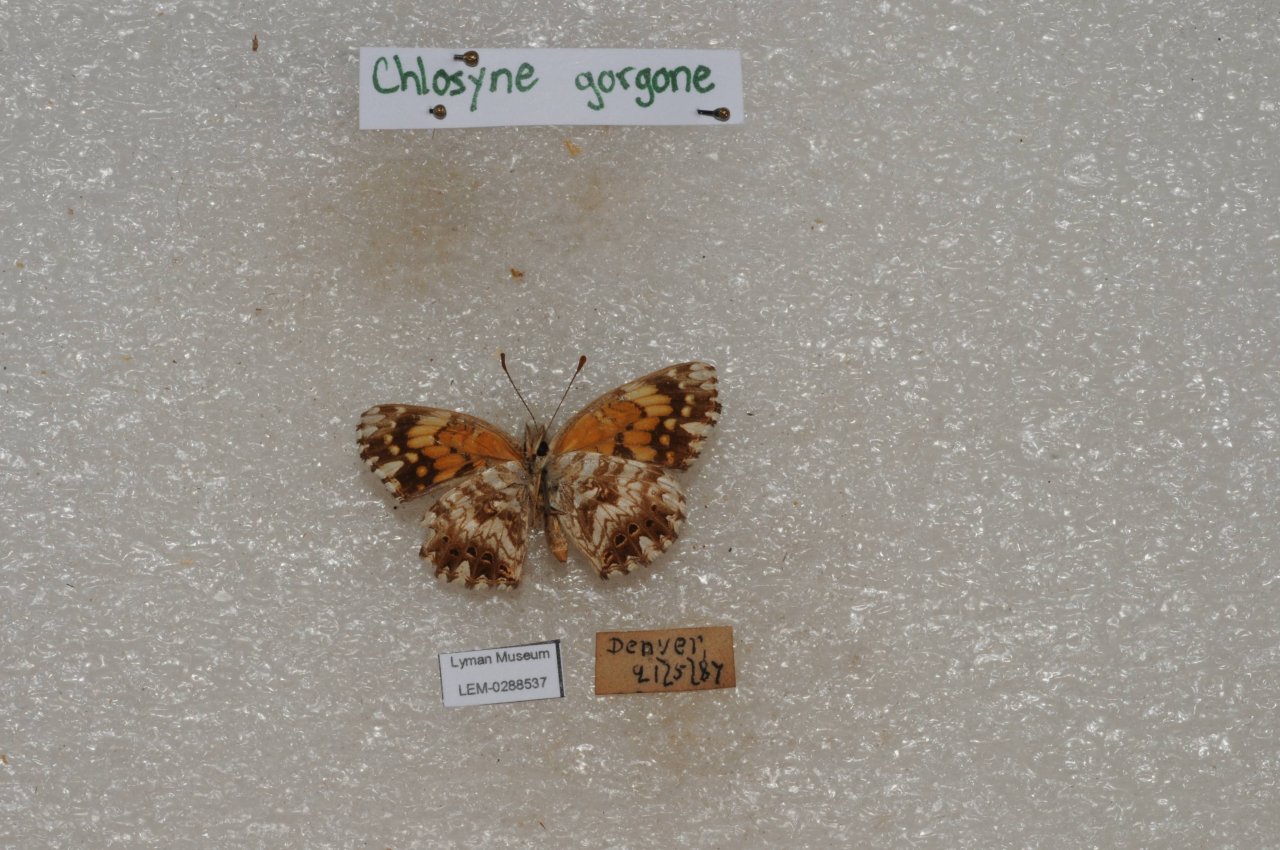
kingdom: Animalia
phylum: Arthropoda
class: Insecta
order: Lepidoptera
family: Nymphalidae
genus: Chlosyne
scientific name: Chlosyne gorgone
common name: Gorgone Checkerspot
